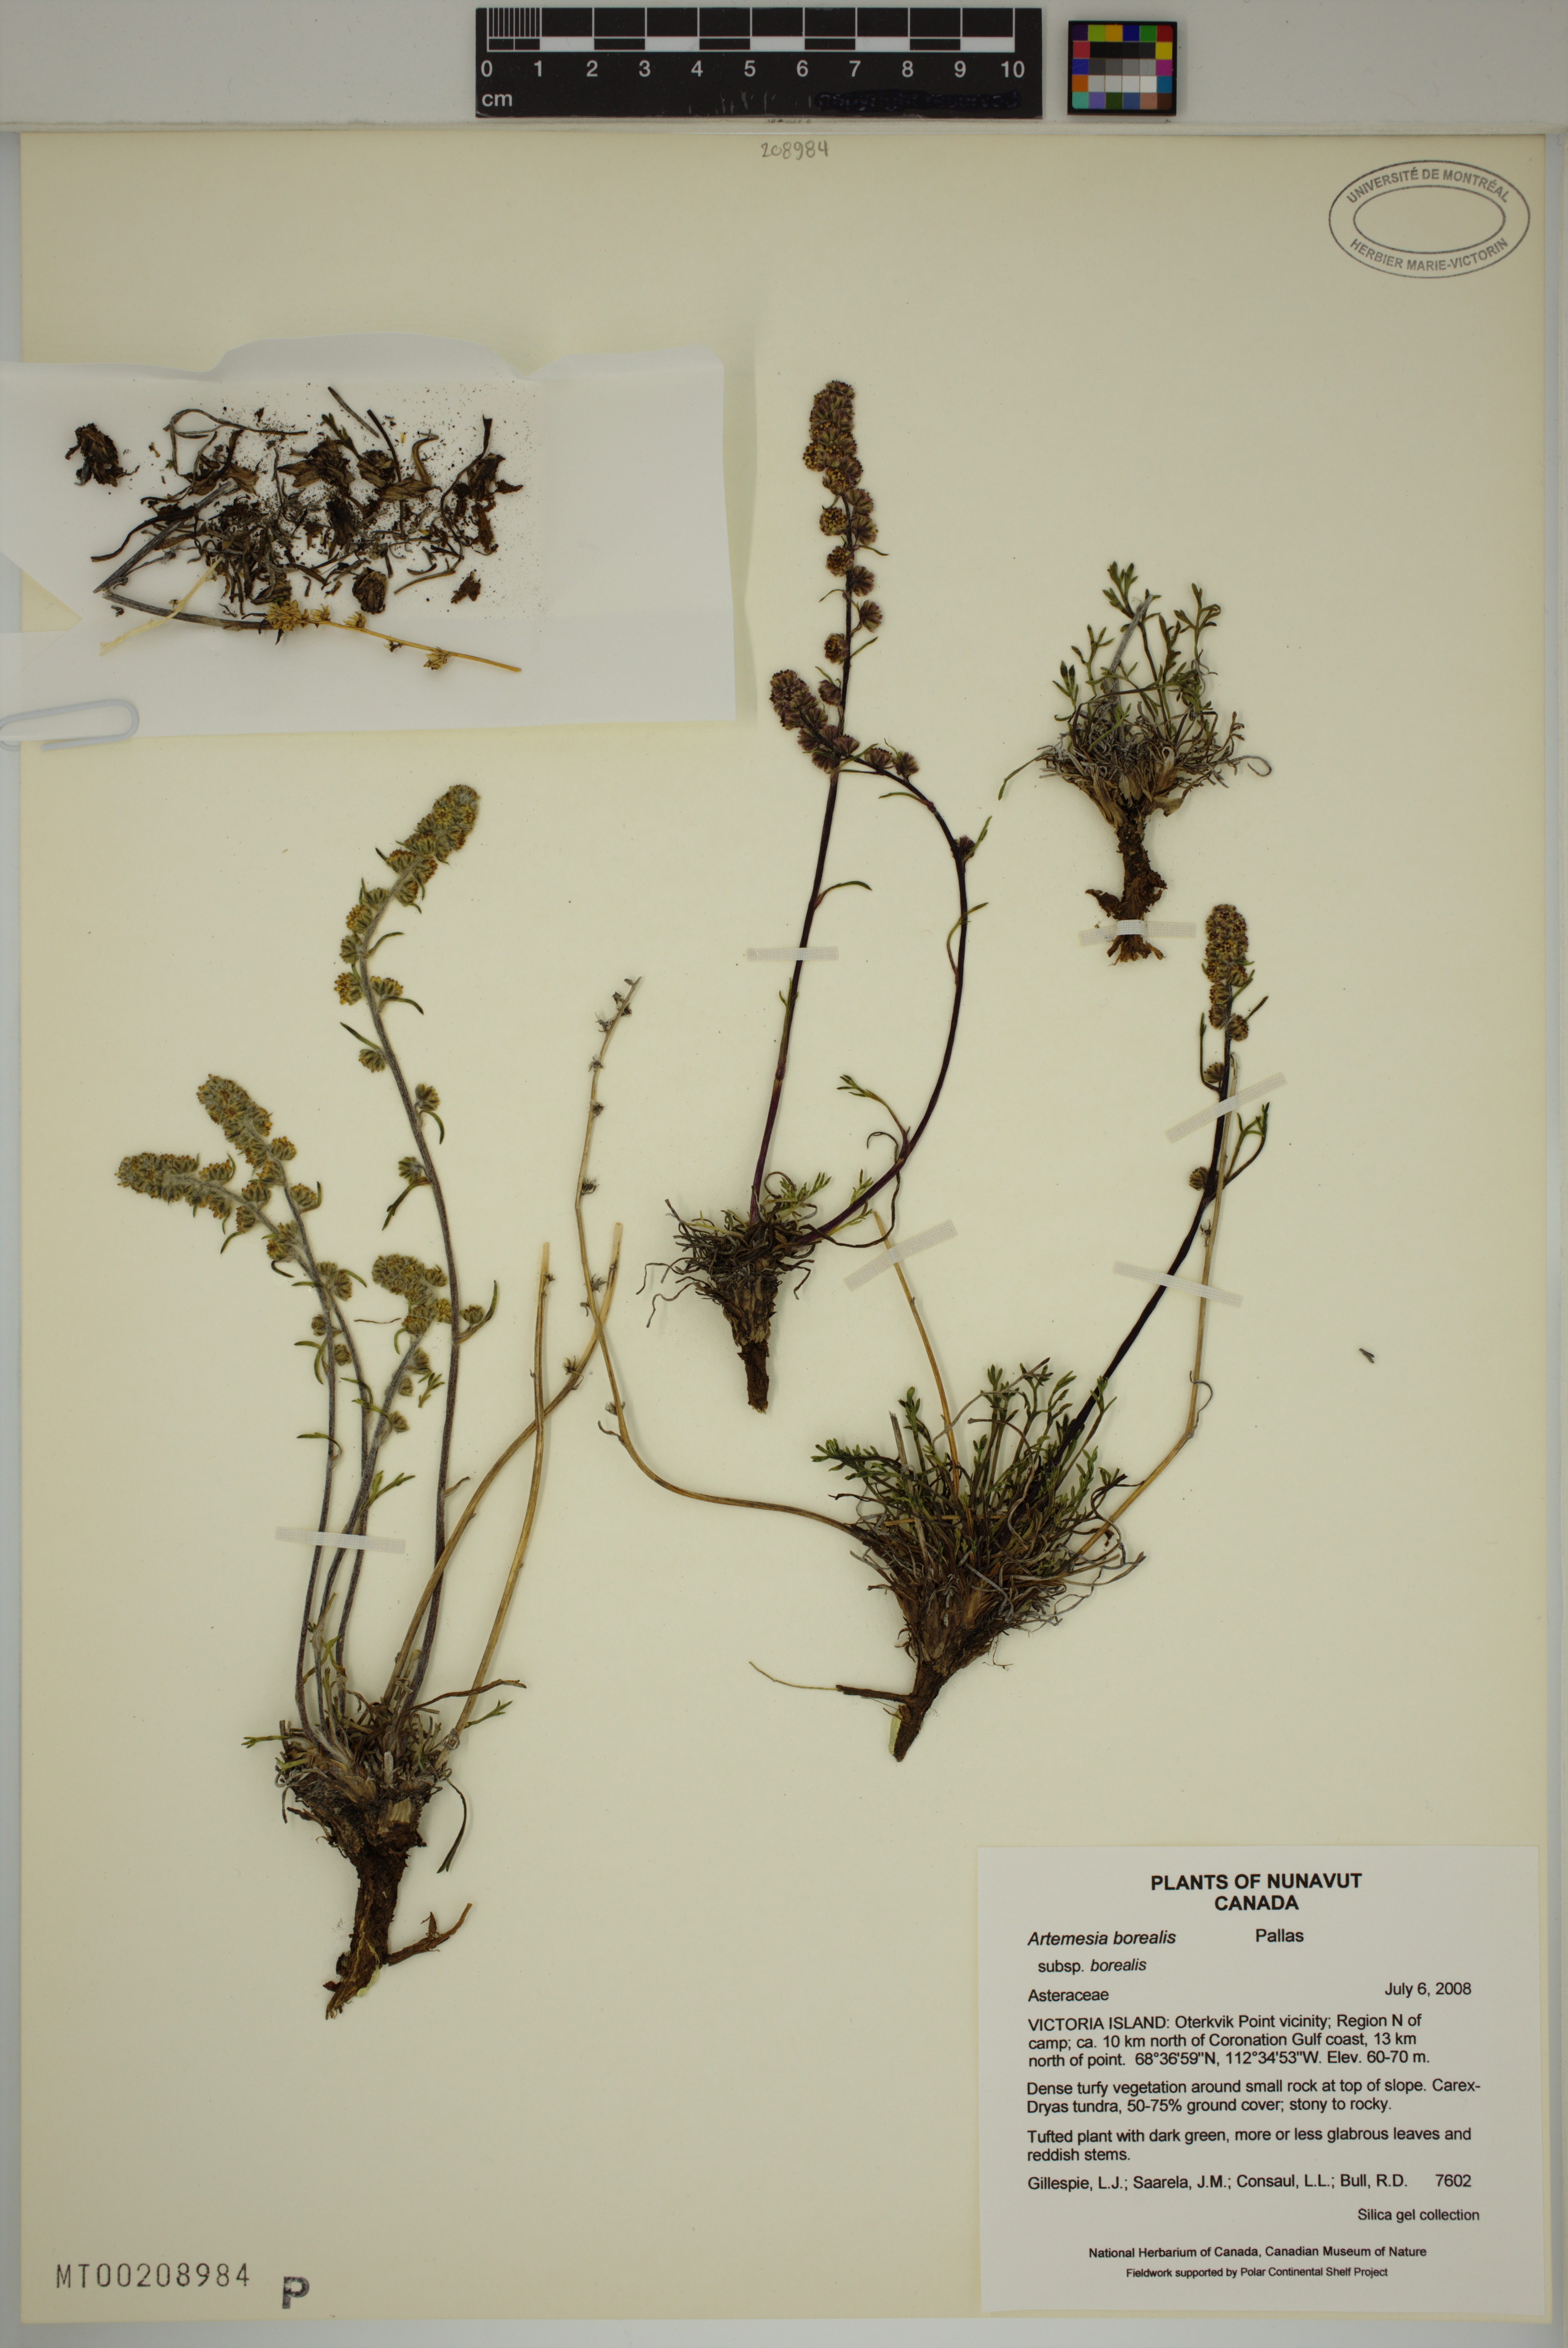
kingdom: Plantae
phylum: Tracheophyta
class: Magnoliopsida
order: Asterales
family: Asteraceae
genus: Artemisia
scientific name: Artemisia borealis
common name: Boreal sage
